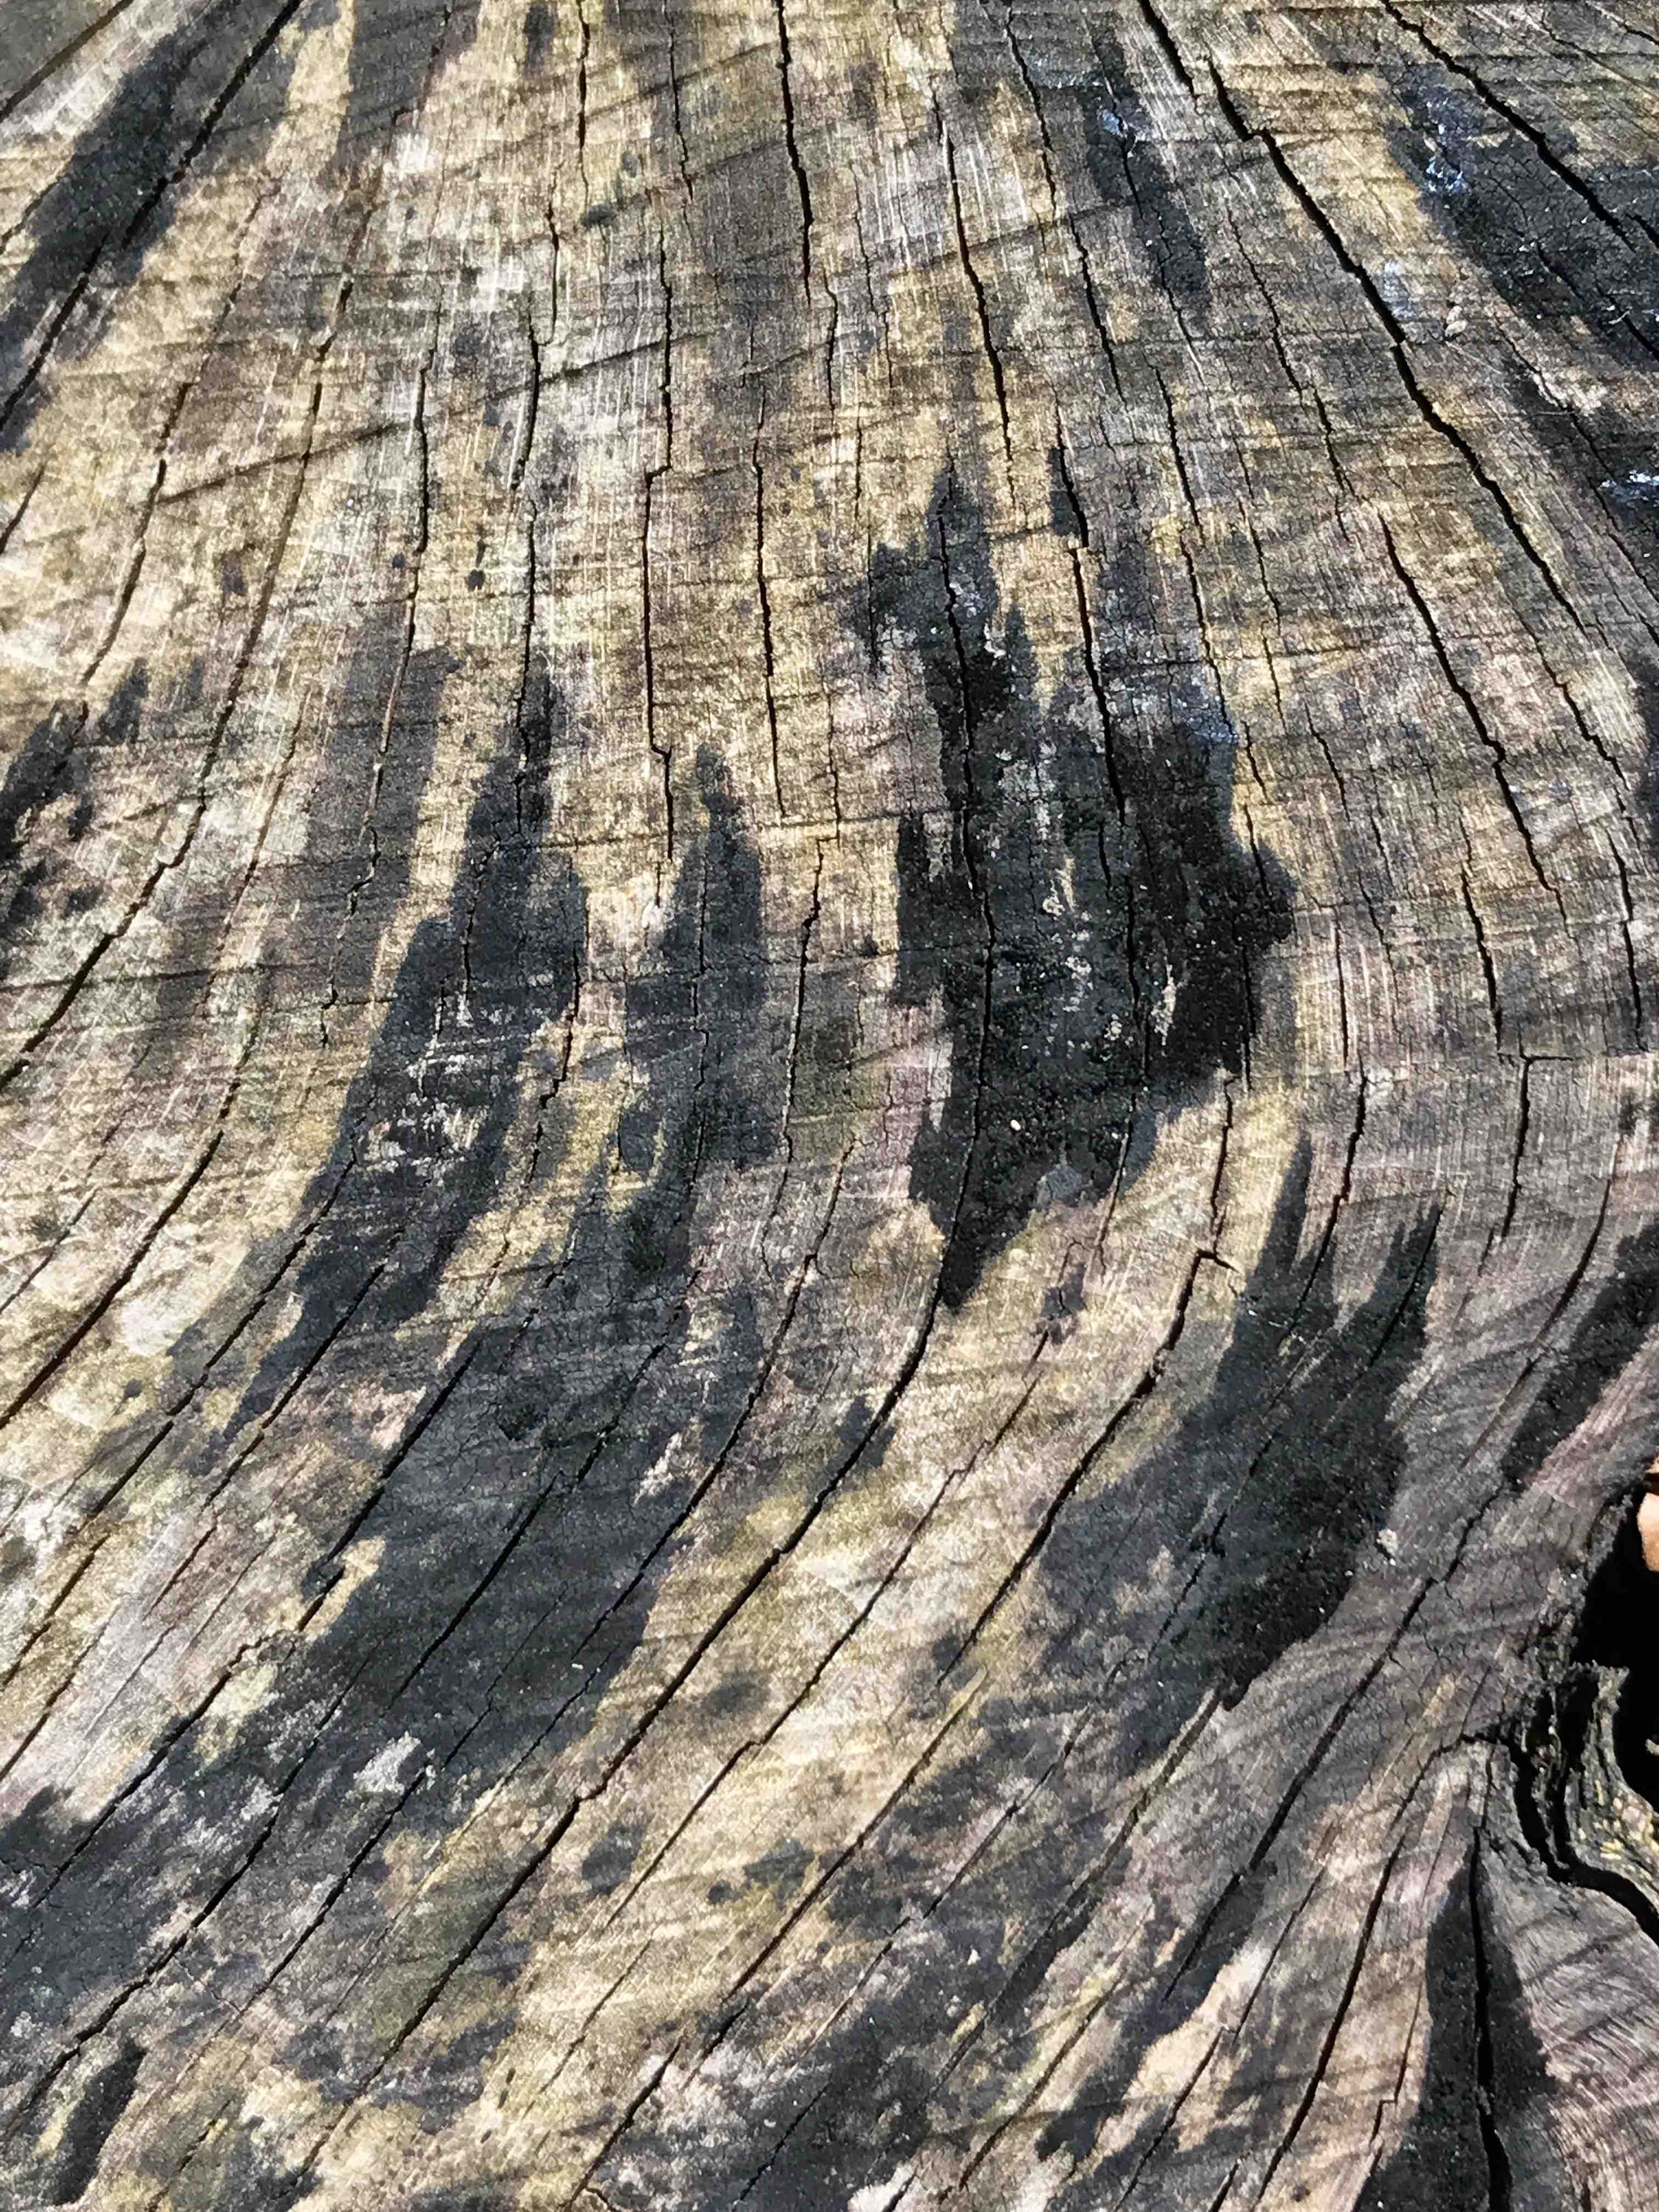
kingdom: Fungi
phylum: Ascomycota
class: Leotiomycetes
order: Helotiales
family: Helotiaceae
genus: Bispora
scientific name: Bispora pallescens
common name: måtte-snitskive
